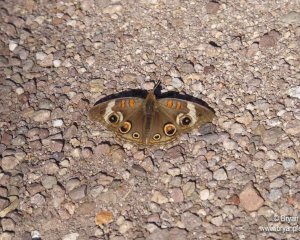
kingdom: Animalia
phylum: Arthropoda
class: Insecta
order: Lepidoptera
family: Nymphalidae
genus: Junonia
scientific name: Junonia coenia
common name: Common Buckeye
